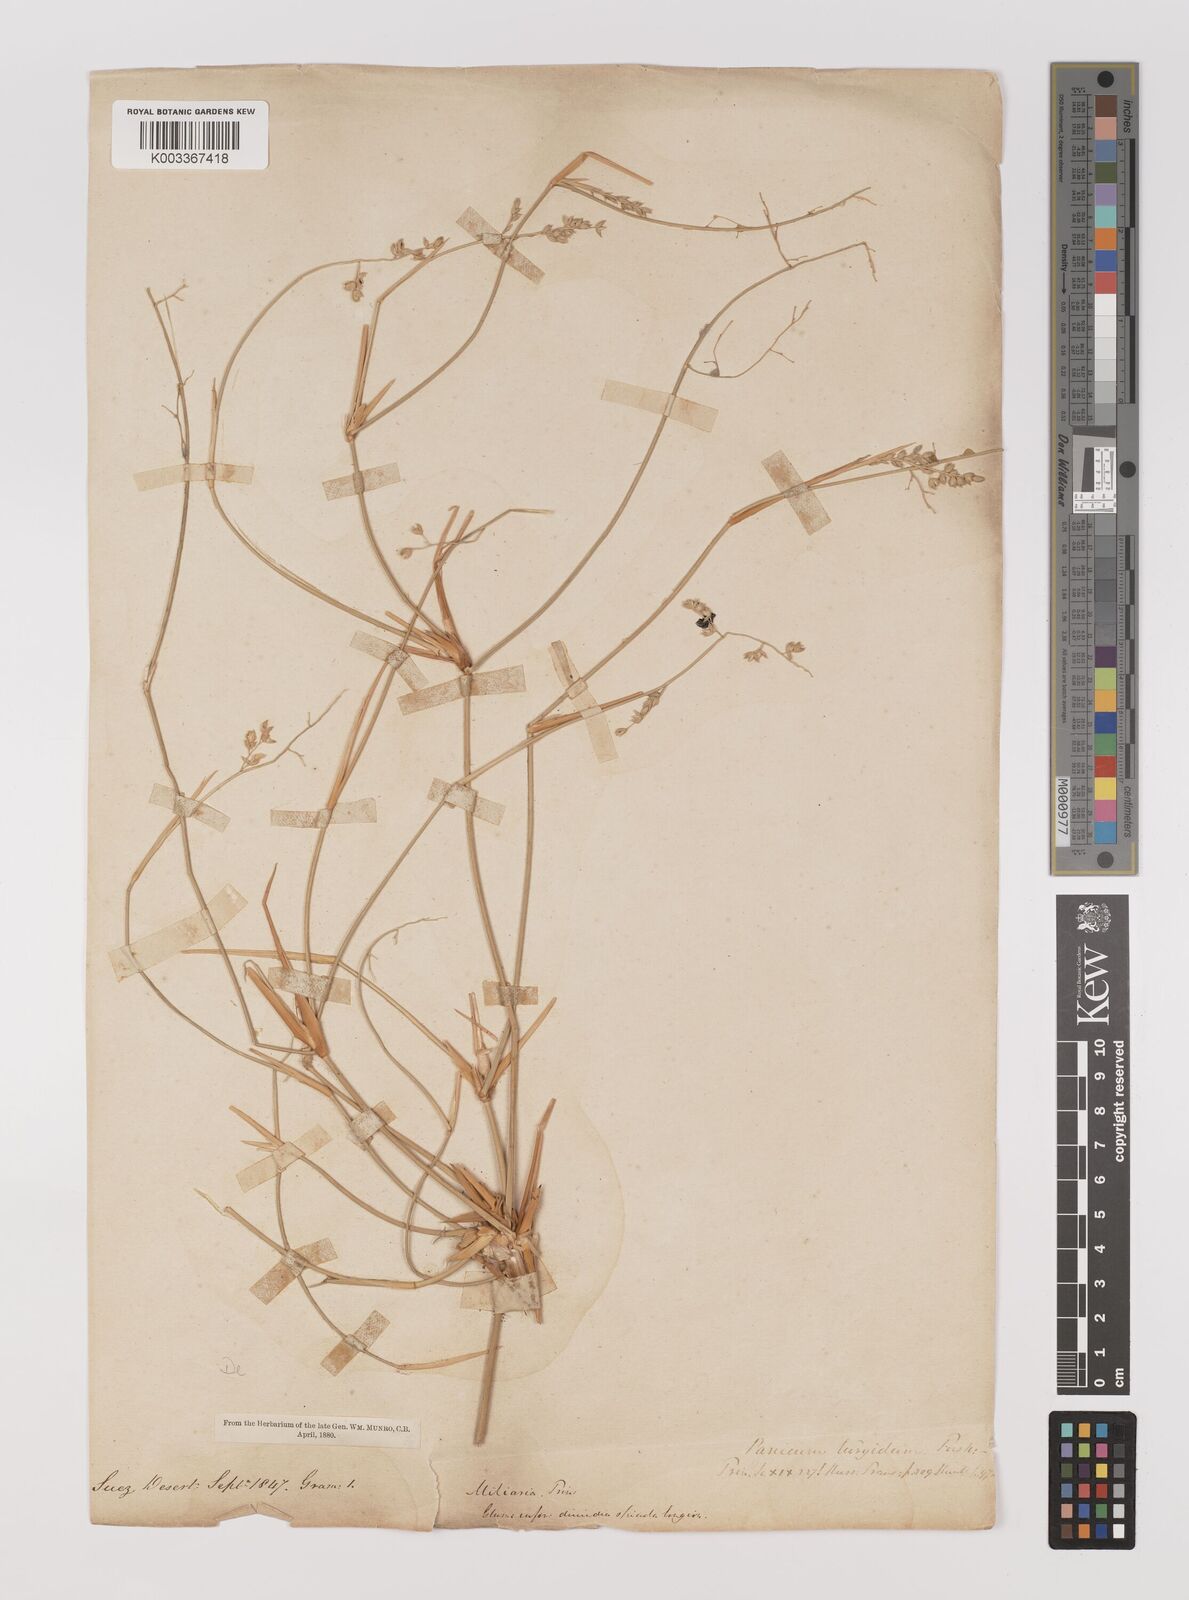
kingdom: Plantae
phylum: Tracheophyta
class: Liliopsida
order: Poales
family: Poaceae
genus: Panicum
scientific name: Panicum turgidum
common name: Desert grass
